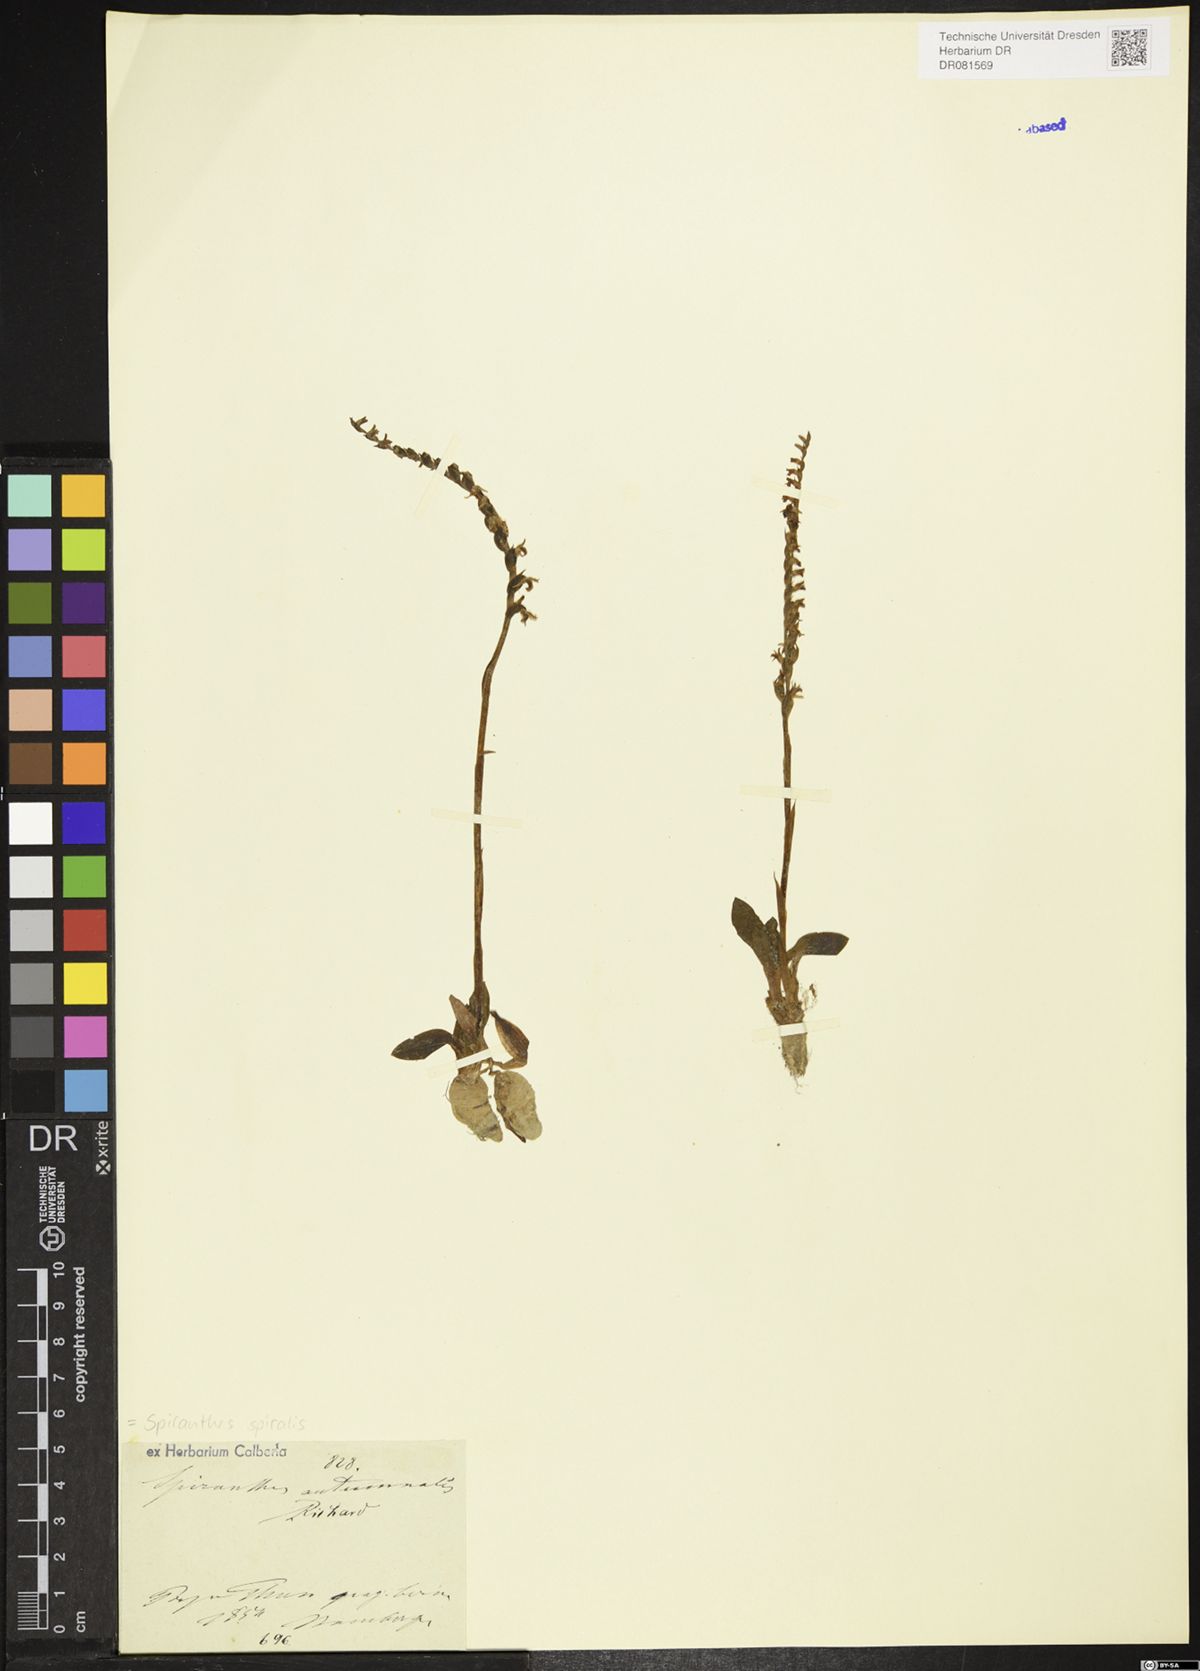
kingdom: Plantae
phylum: Tracheophyta
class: Liliopsida
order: Asparagales
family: Orchidaceae
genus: Spiranthes
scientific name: Spiranthes spiralis
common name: Autumn lady's-tresses
